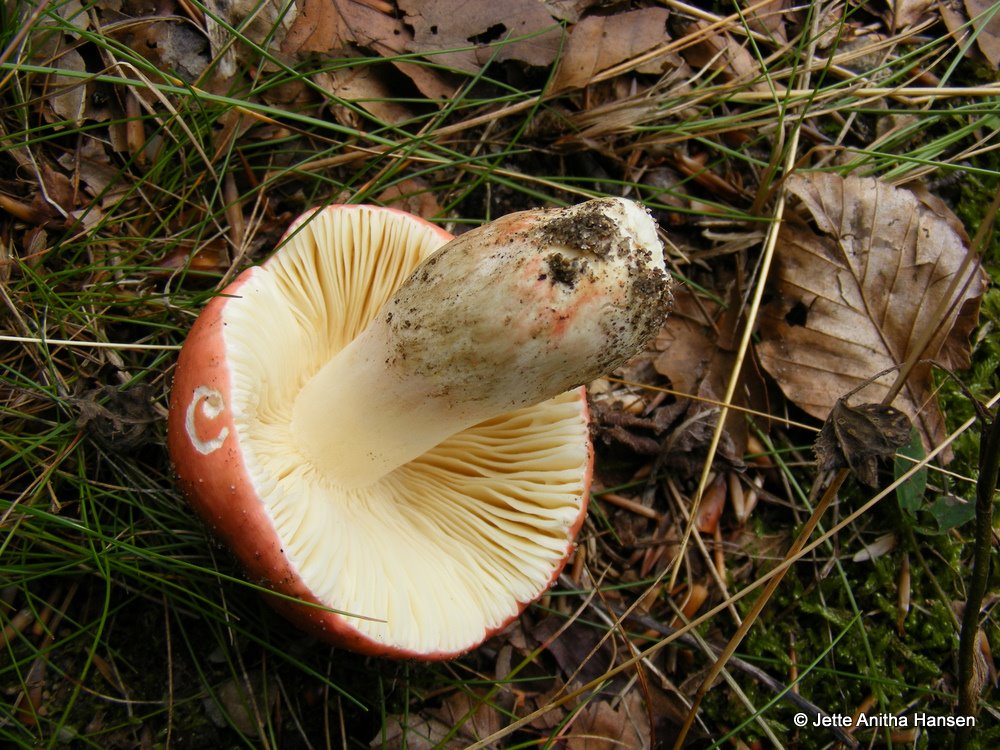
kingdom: Fungi
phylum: Basidiomycota
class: Agaricomycetes
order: Russulales
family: Russulaceae
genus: Russula
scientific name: Russula rosea
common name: fastkødet skørhat
